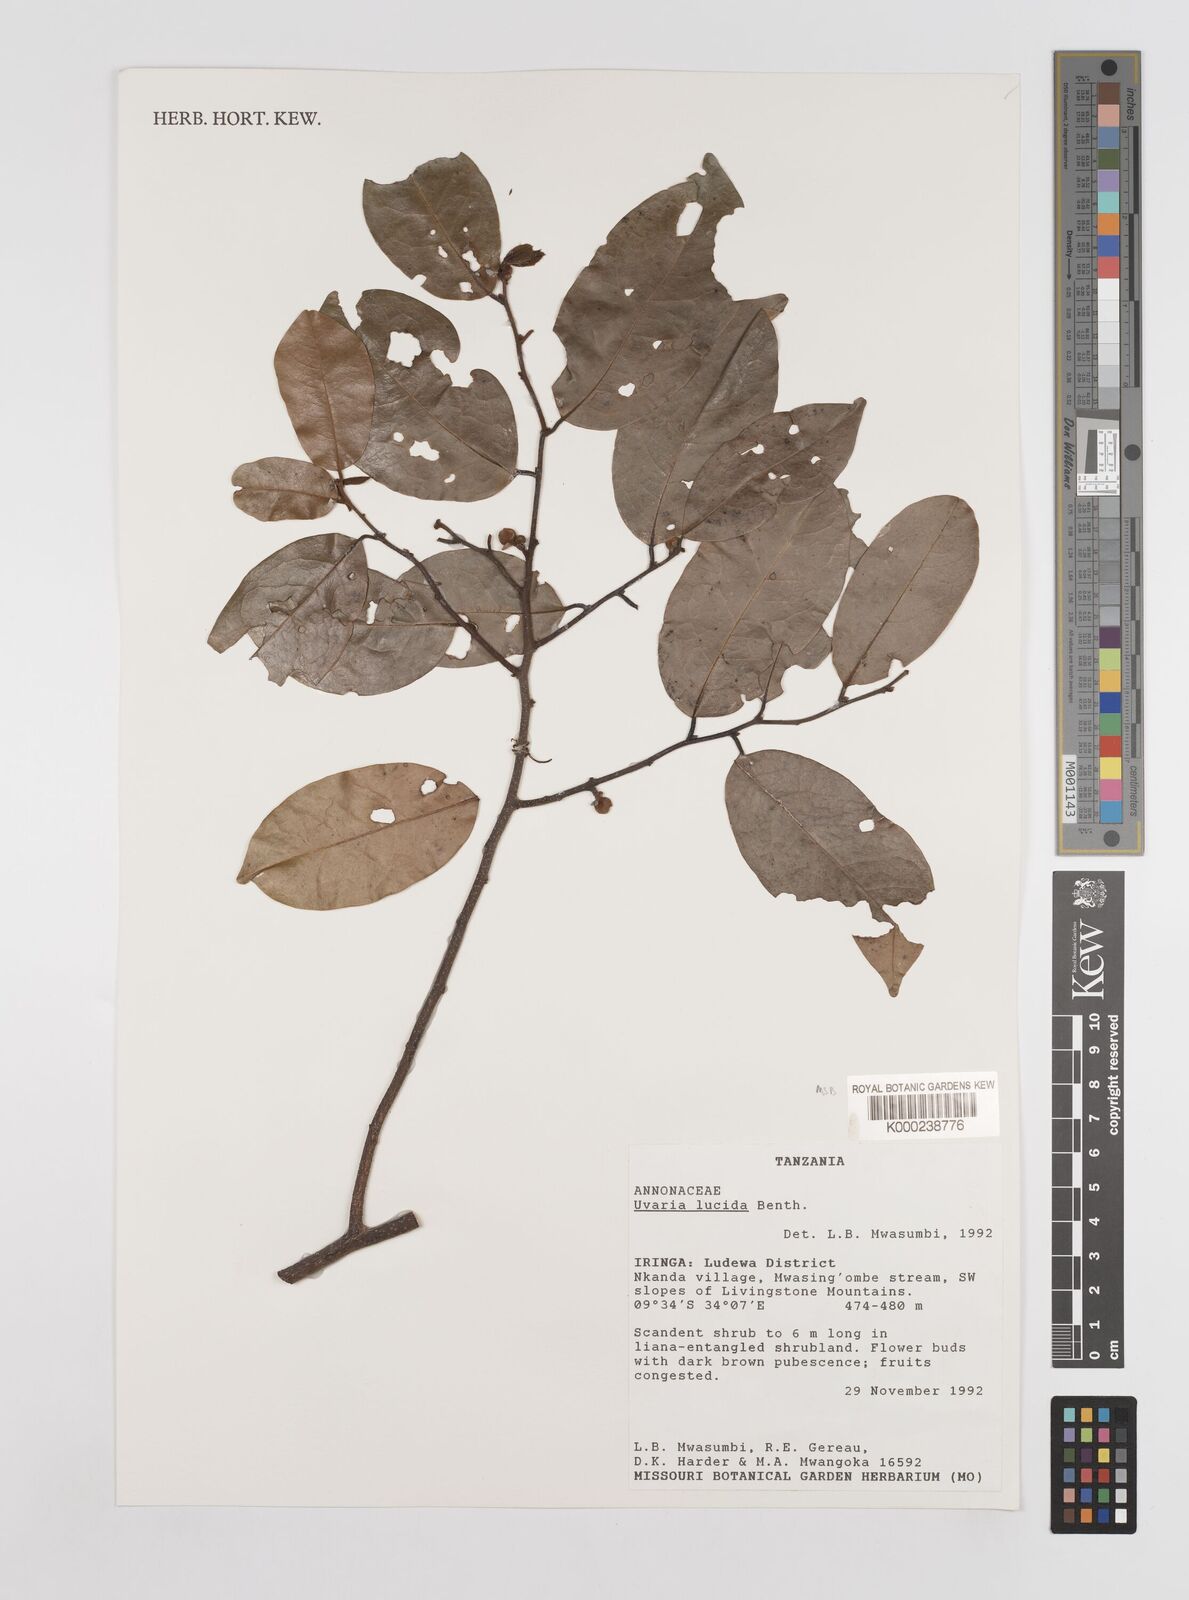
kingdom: Plantae
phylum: Tracheophyta
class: Magnoliopsida
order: Magnoliales
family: Annonaceae
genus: Uvaria
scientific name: Uvaria lucida
